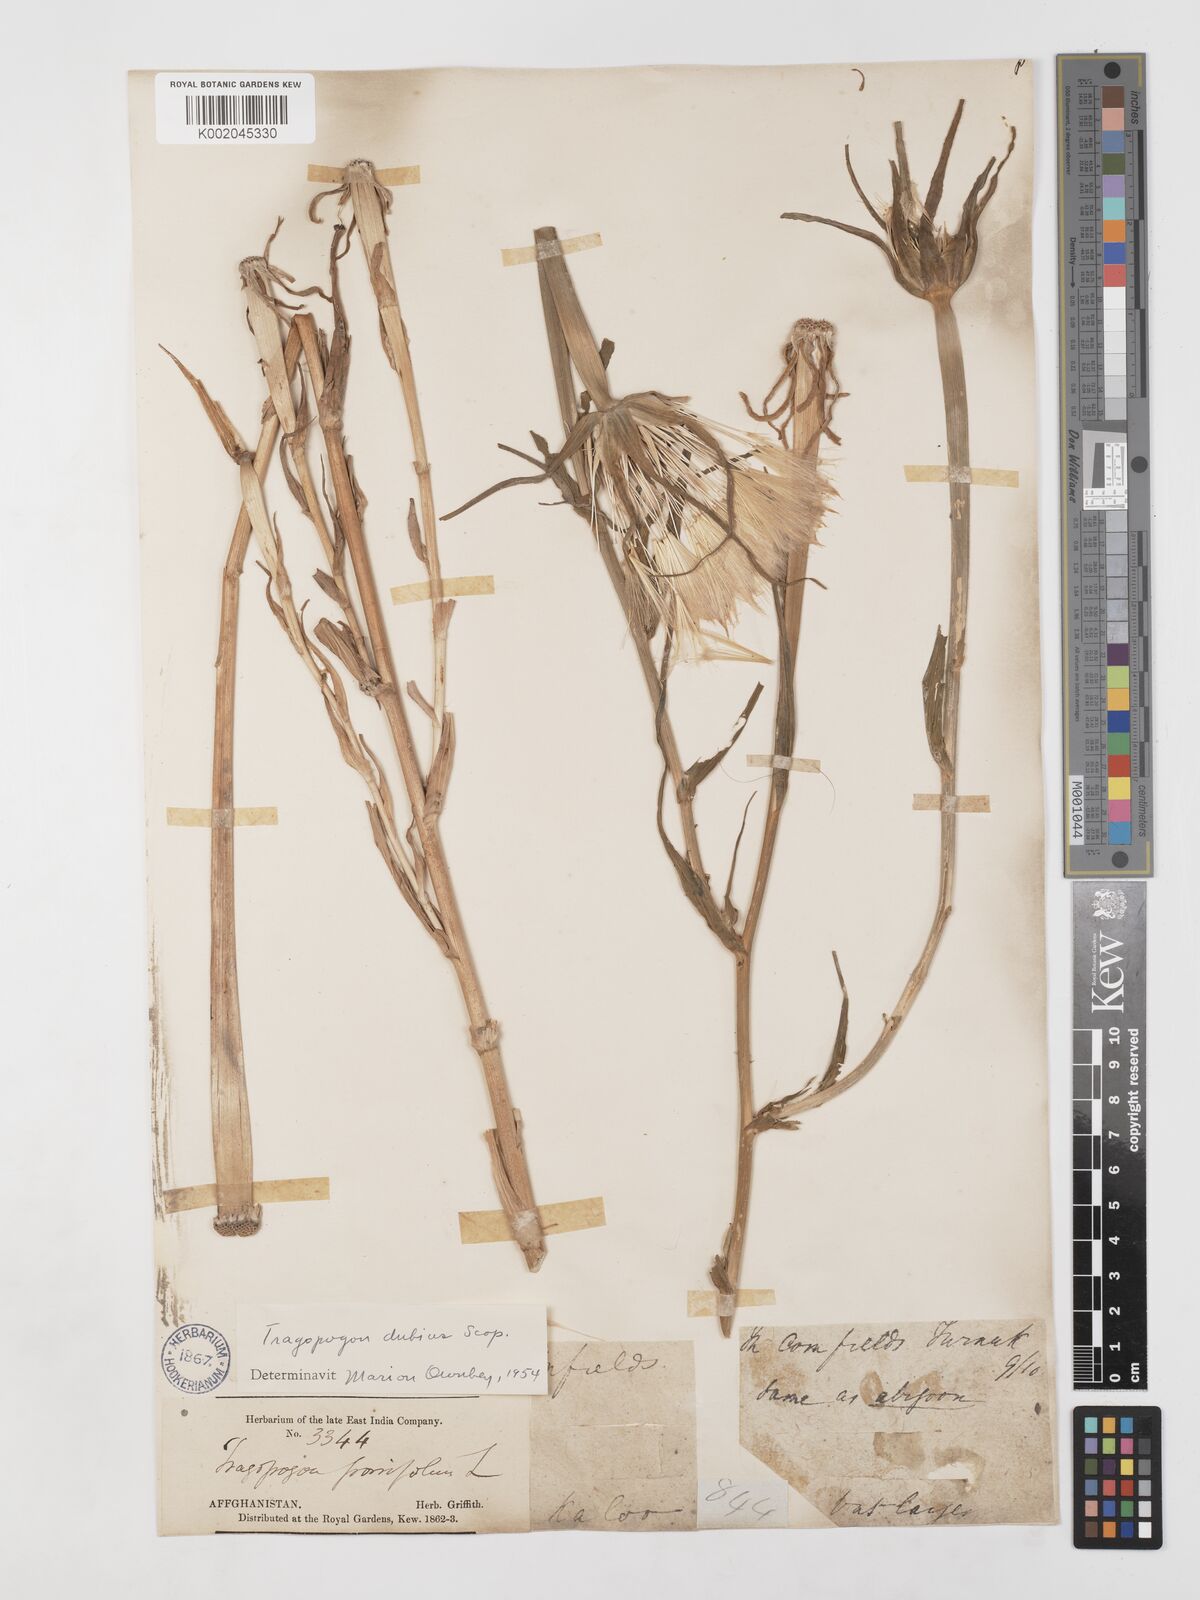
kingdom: Plantae
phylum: Tracheophyta
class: Magnoliopsida
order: Asterales
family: Asteraceae
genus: Tragopogon
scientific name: Tragopogon dubius
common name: Yellow salsify
